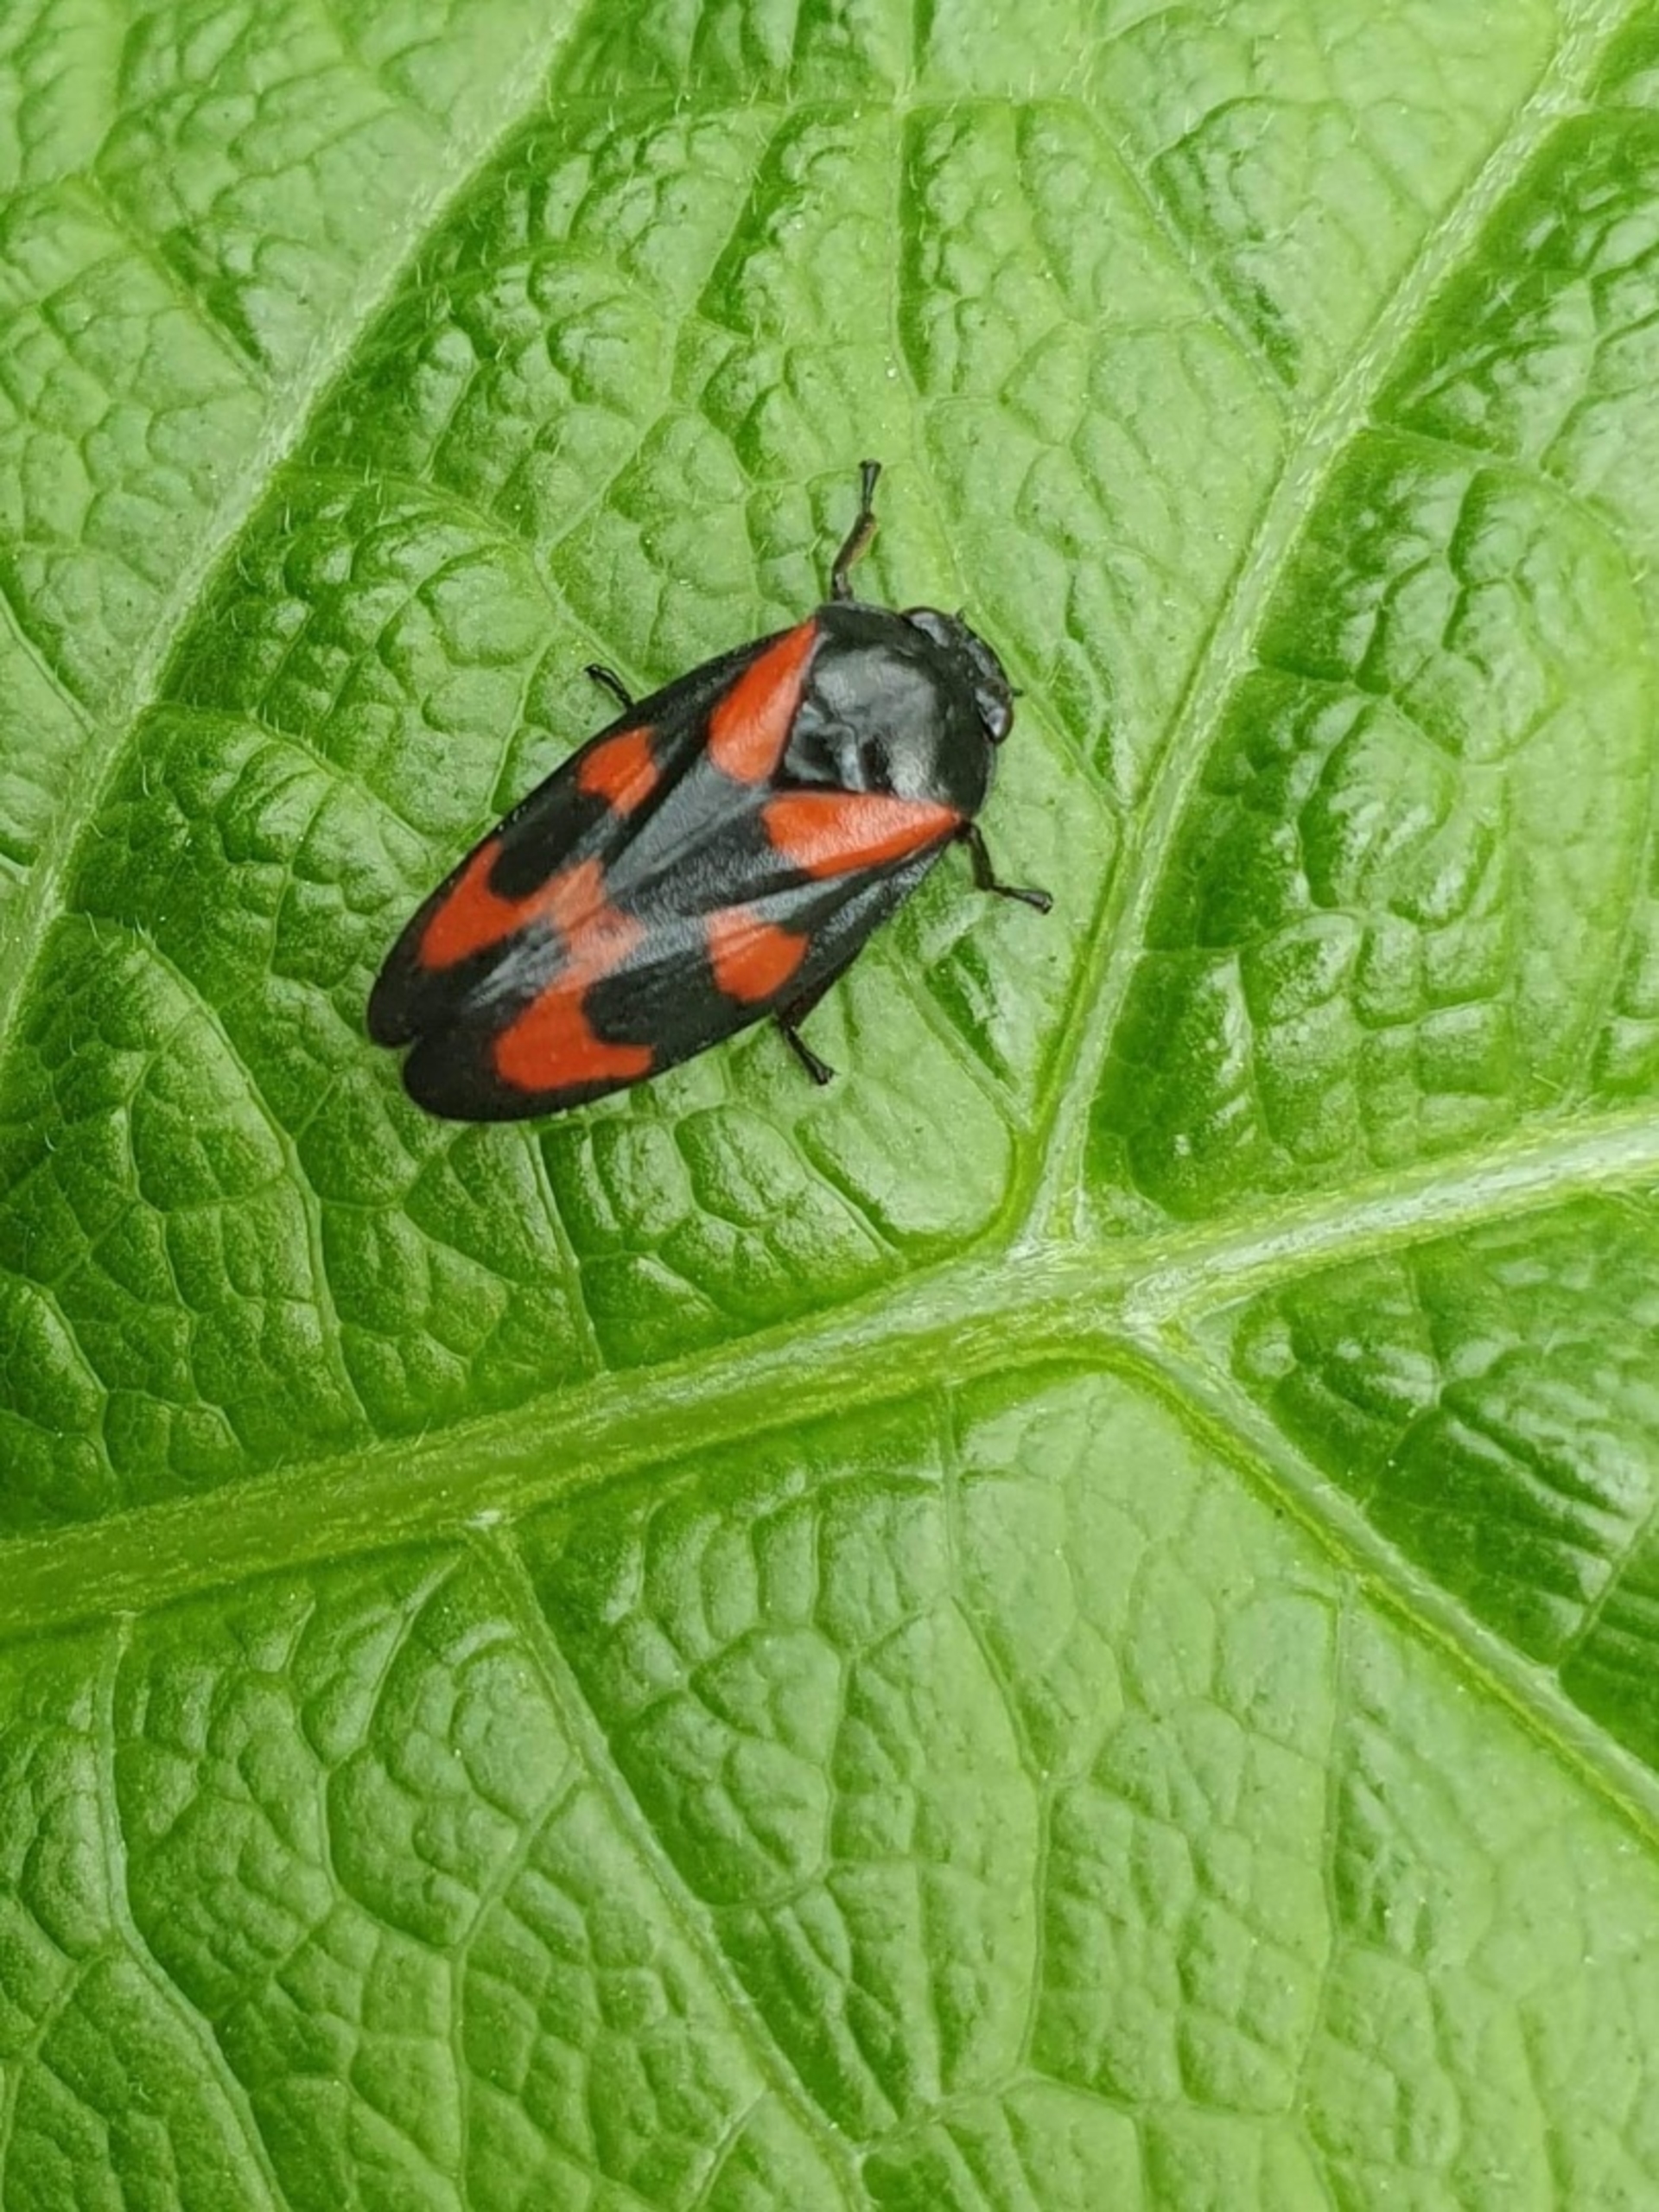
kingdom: Animalia
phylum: Arthropoda
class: Insecta
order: Hemiptera
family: Cercopidae
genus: Cercopis
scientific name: Cercopis vulnerata
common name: Blodcikade
